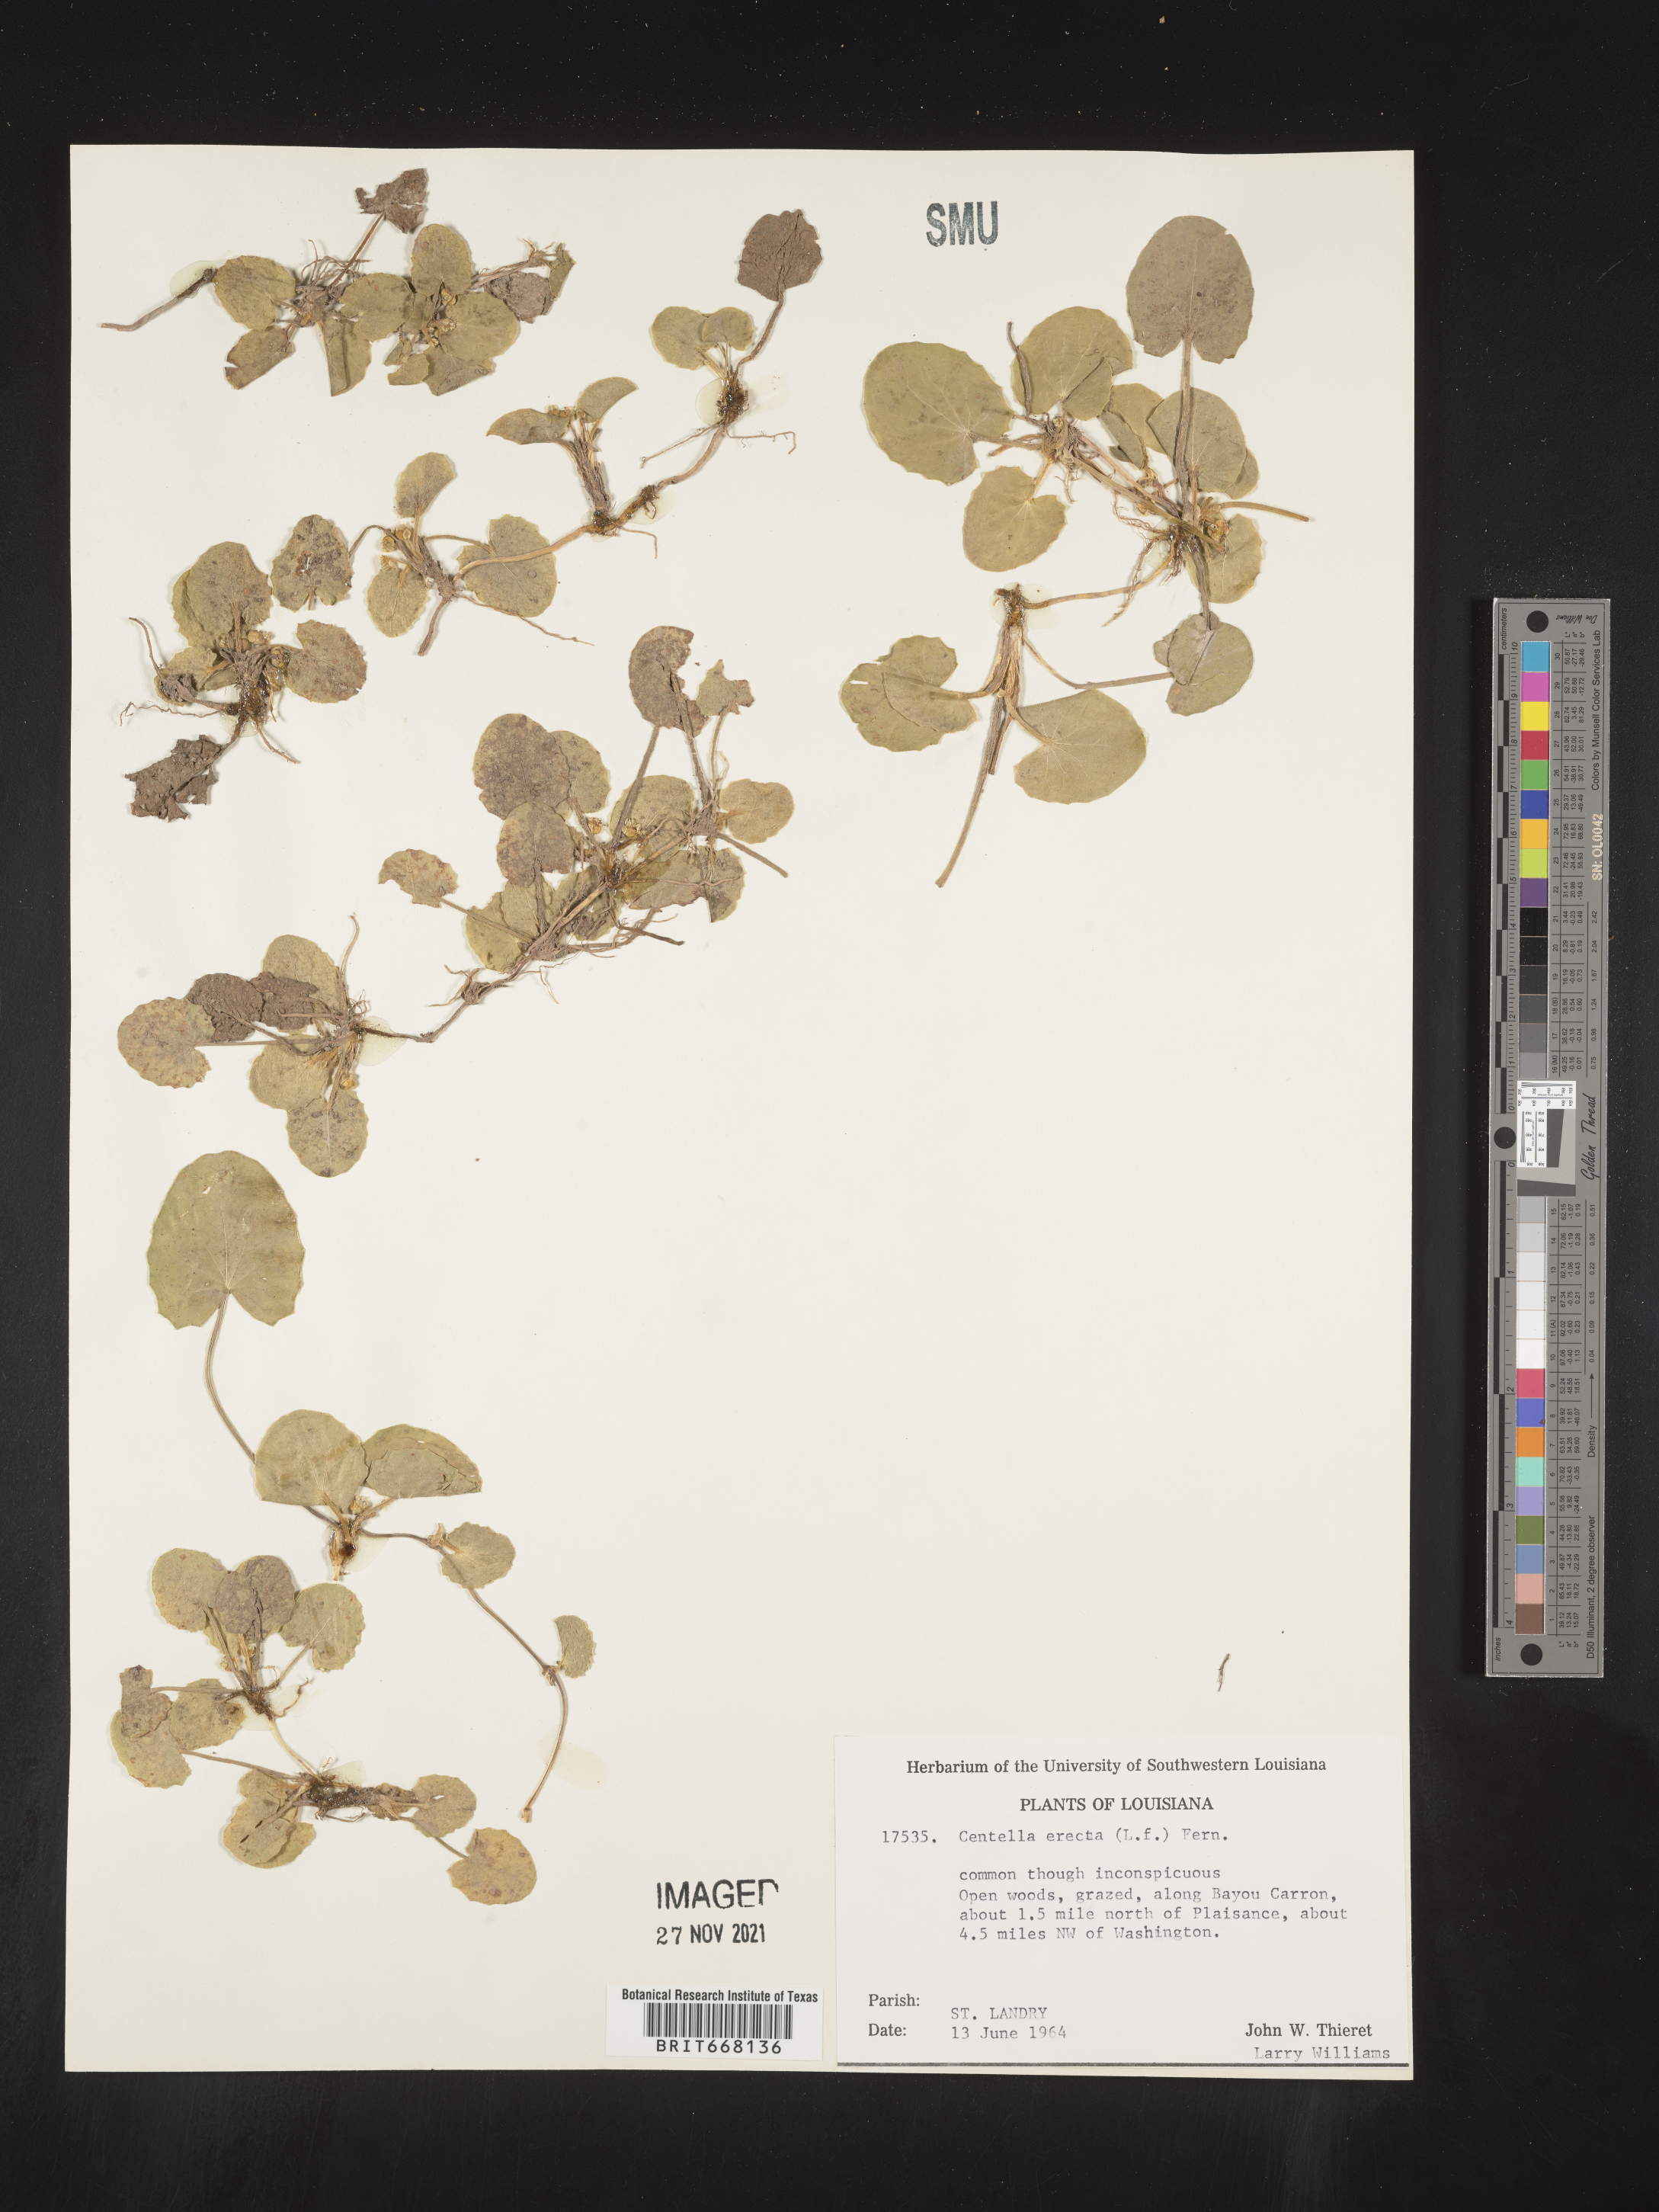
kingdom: Plantae
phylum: Tracheophyta
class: Magnoliopsida
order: Apiales
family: Apiaceae
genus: Centella
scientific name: Centella
